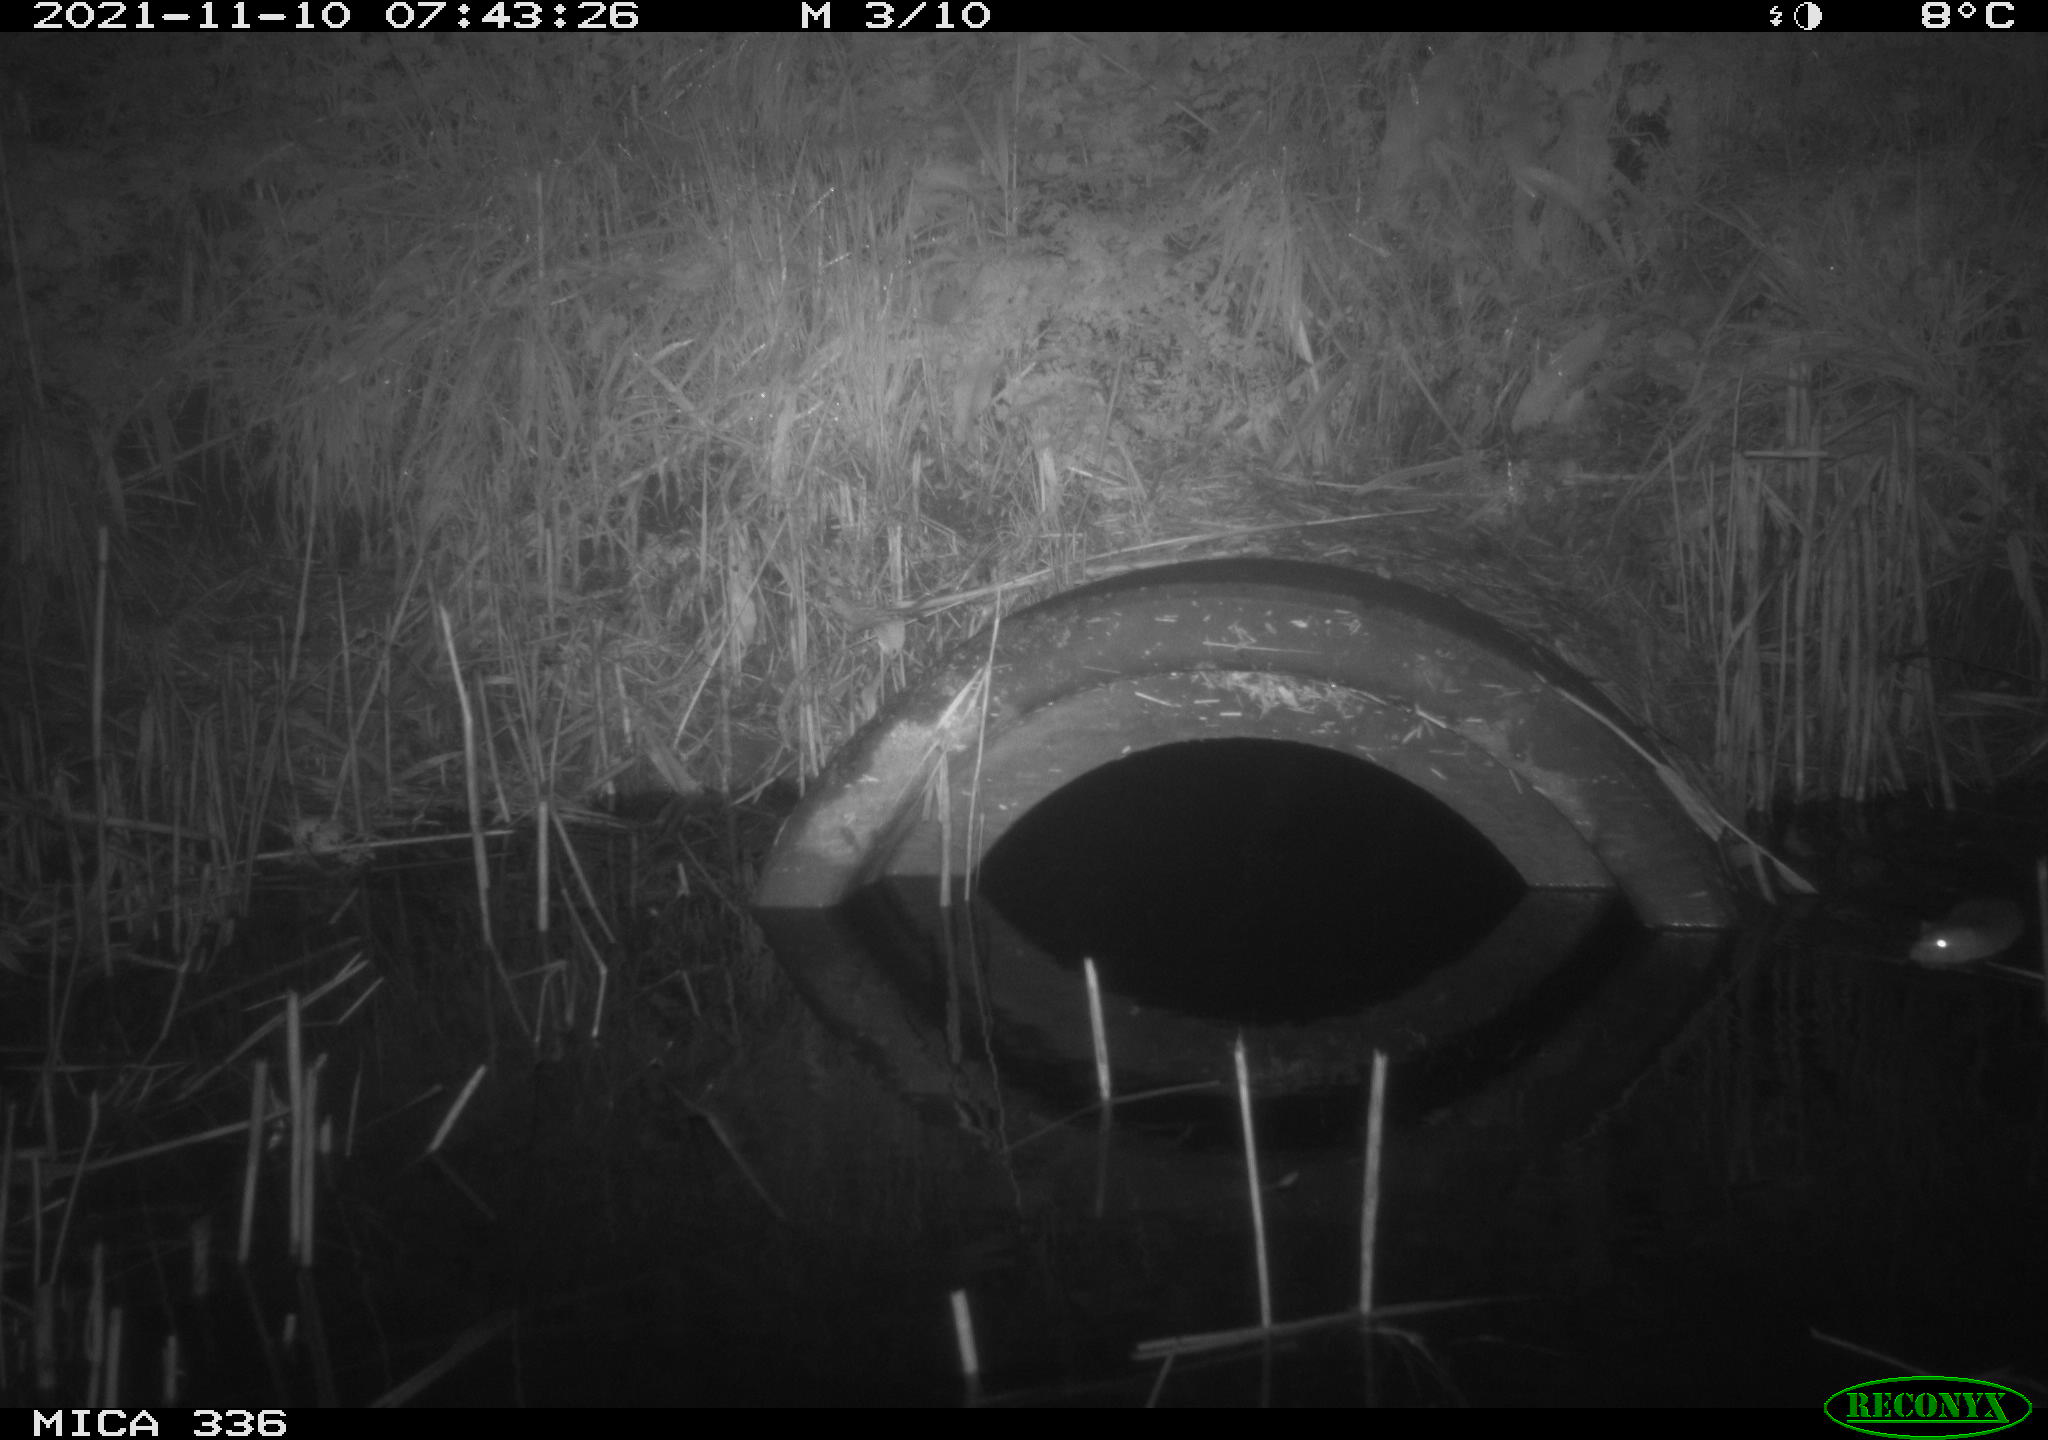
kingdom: Animalia
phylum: Chordata
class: Mammalia
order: Rodentia
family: Muridae
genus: Rattus
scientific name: Rattus norvegicus
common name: Brown rat
